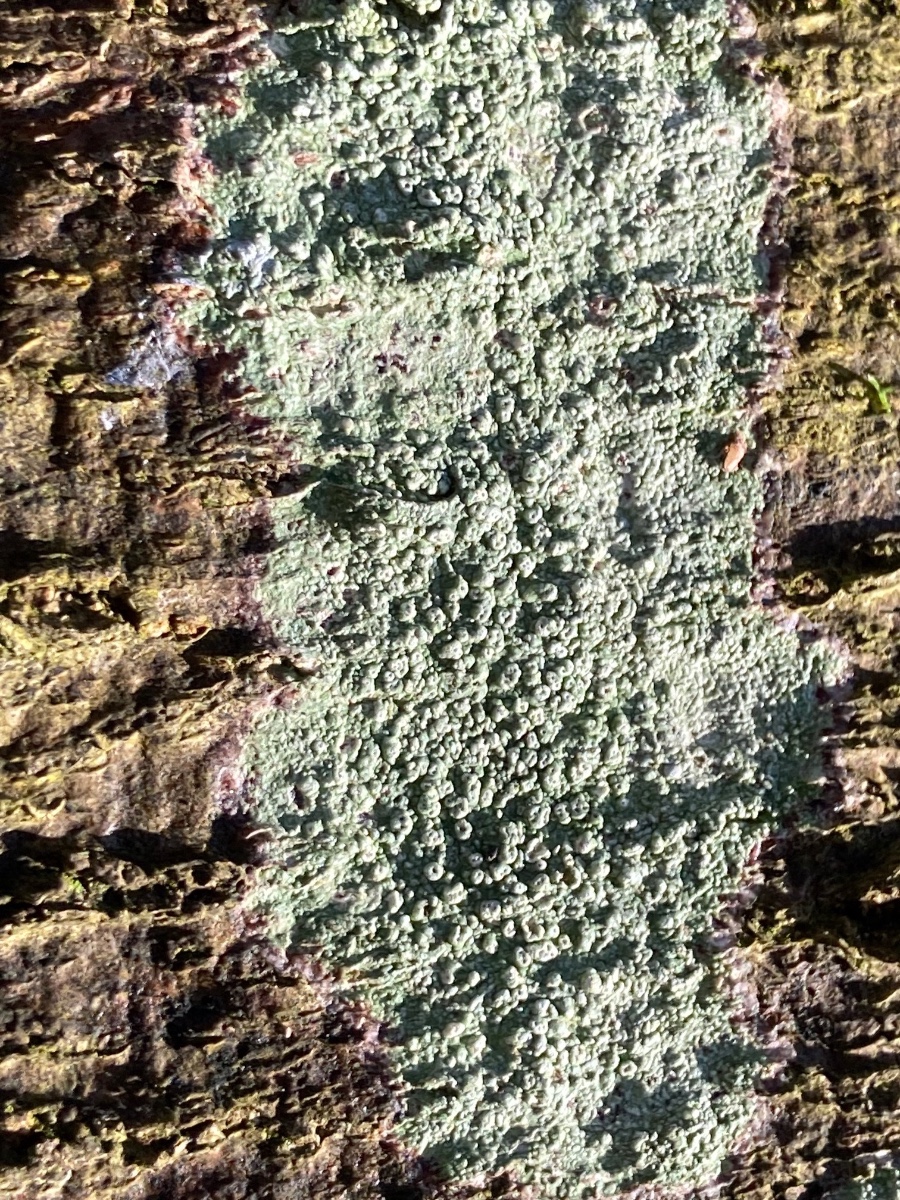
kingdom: Fungi
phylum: Ascomycota
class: Lecanoromycetes
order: Pertusariales
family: Pertusariaceae
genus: Pertusaria
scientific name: Pertusaria pertusa
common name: almindelig prikvortelav
